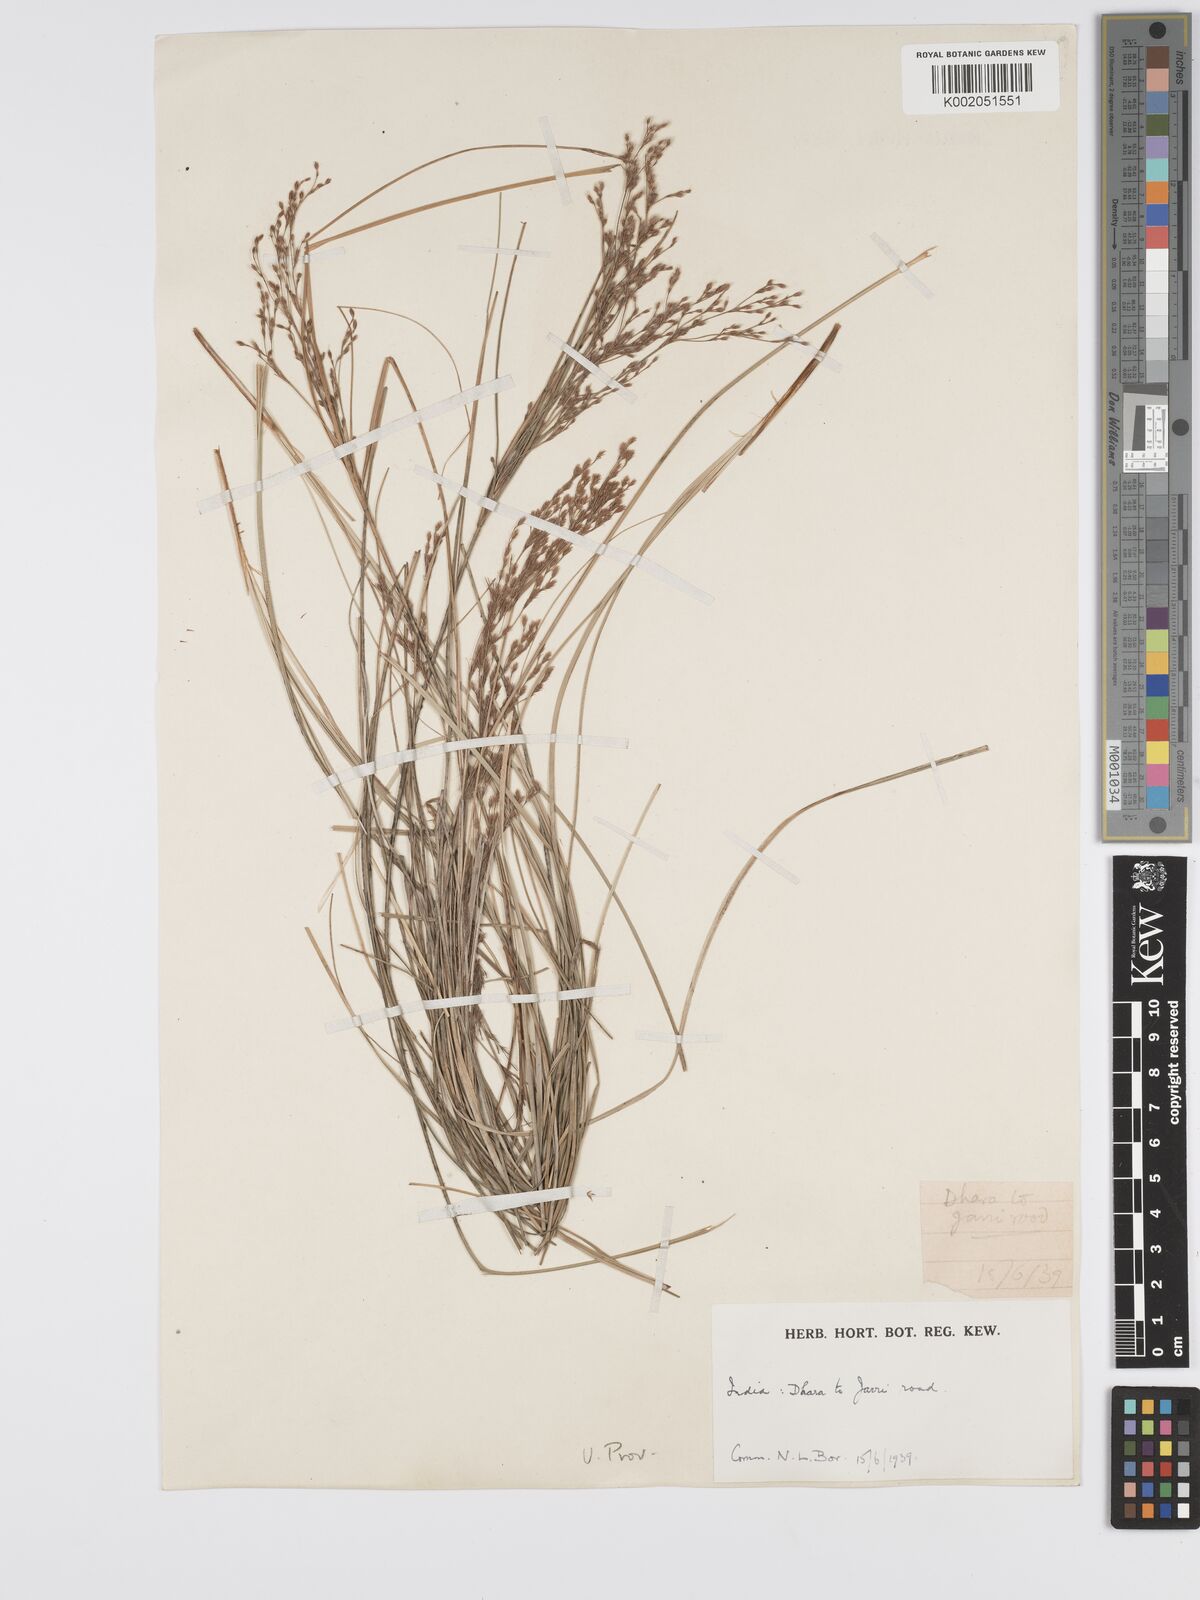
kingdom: Plantae
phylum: Tracheophyta
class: Liliopsida
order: Poales
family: Cyperaceae
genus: Erioscirpus
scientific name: Erioscirpus comosus
